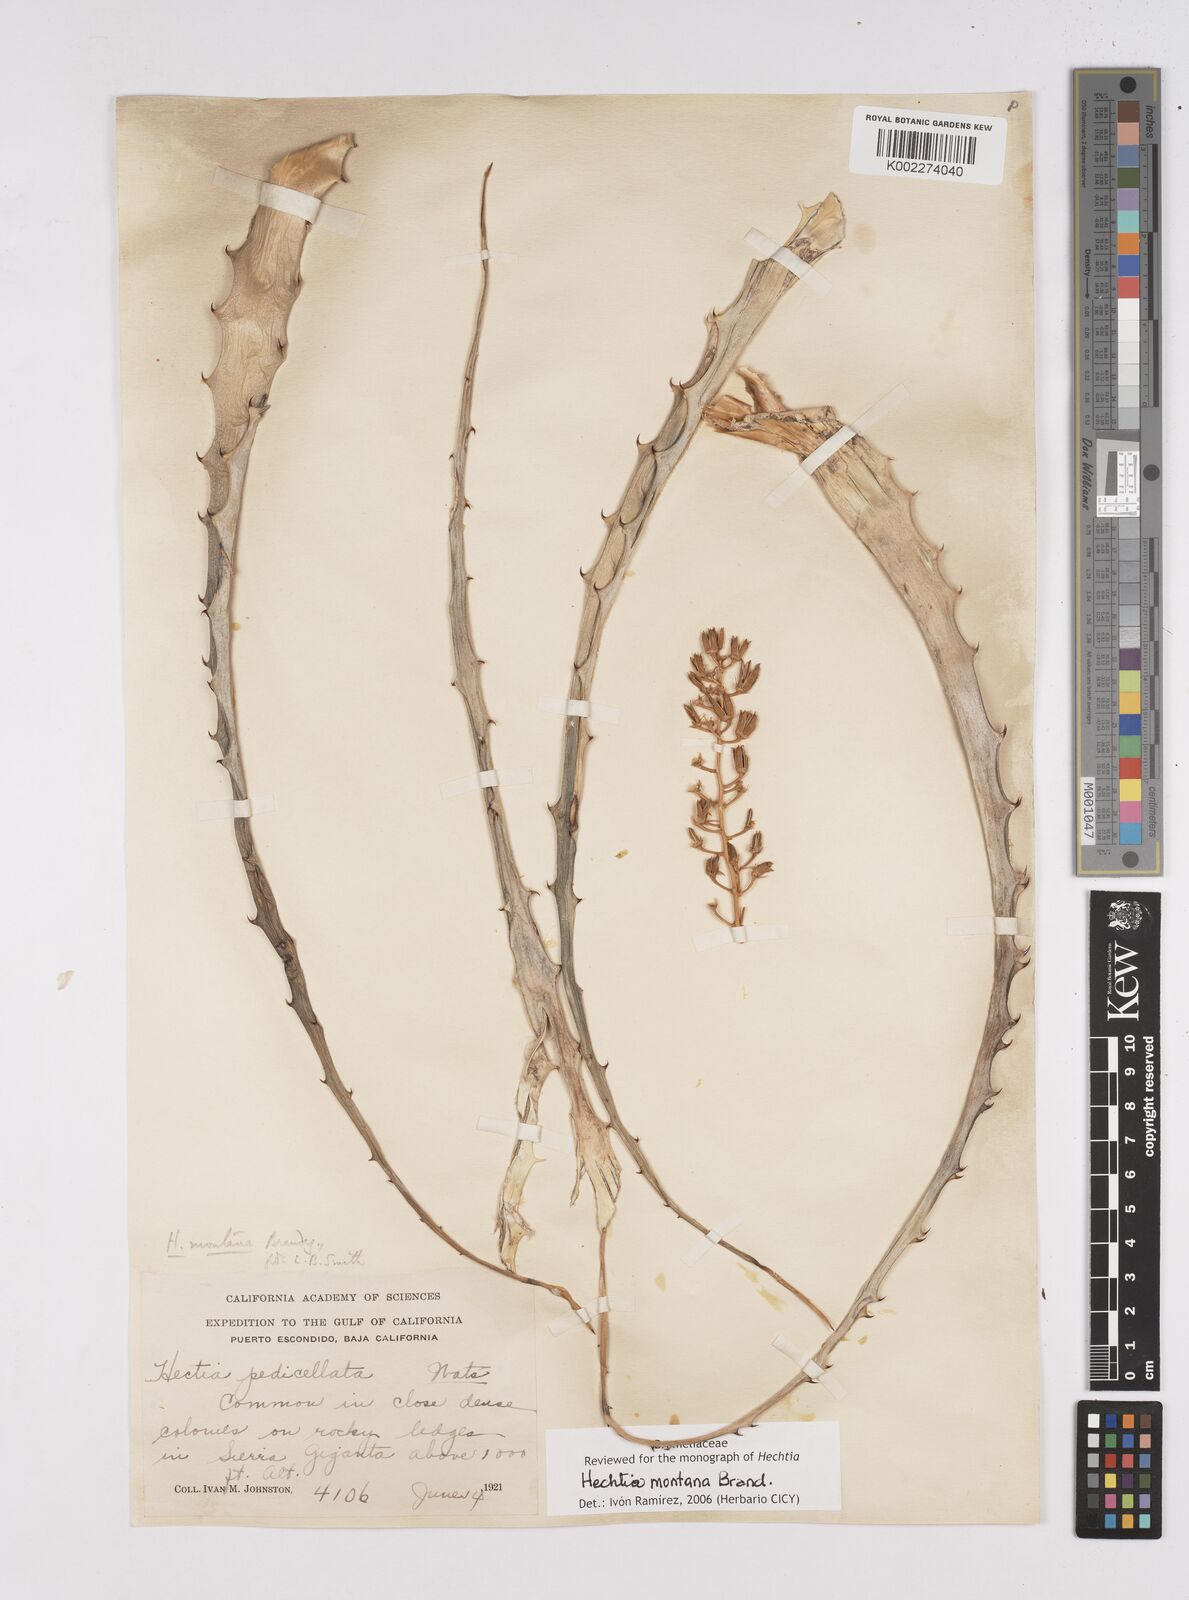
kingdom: Plantae
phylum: Tracheophyta
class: Liliopsida
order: Poales
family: Bromeliaceae
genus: Hechtia
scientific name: Hechtia montana
